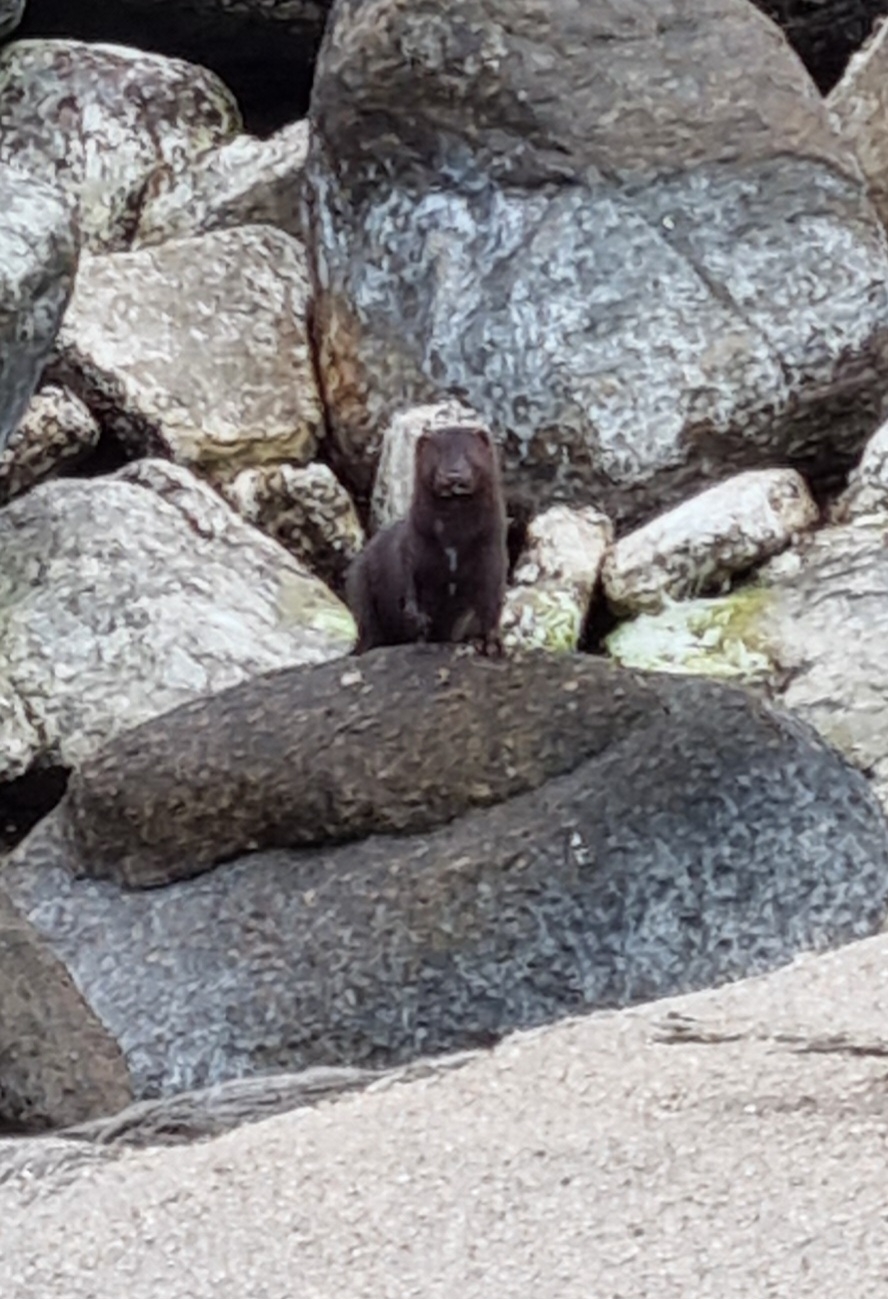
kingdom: Animalia
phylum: Chordata
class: Mammalia
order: Carnivora
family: Mustelidae
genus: Mustela
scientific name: Mustela vison
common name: Mink
